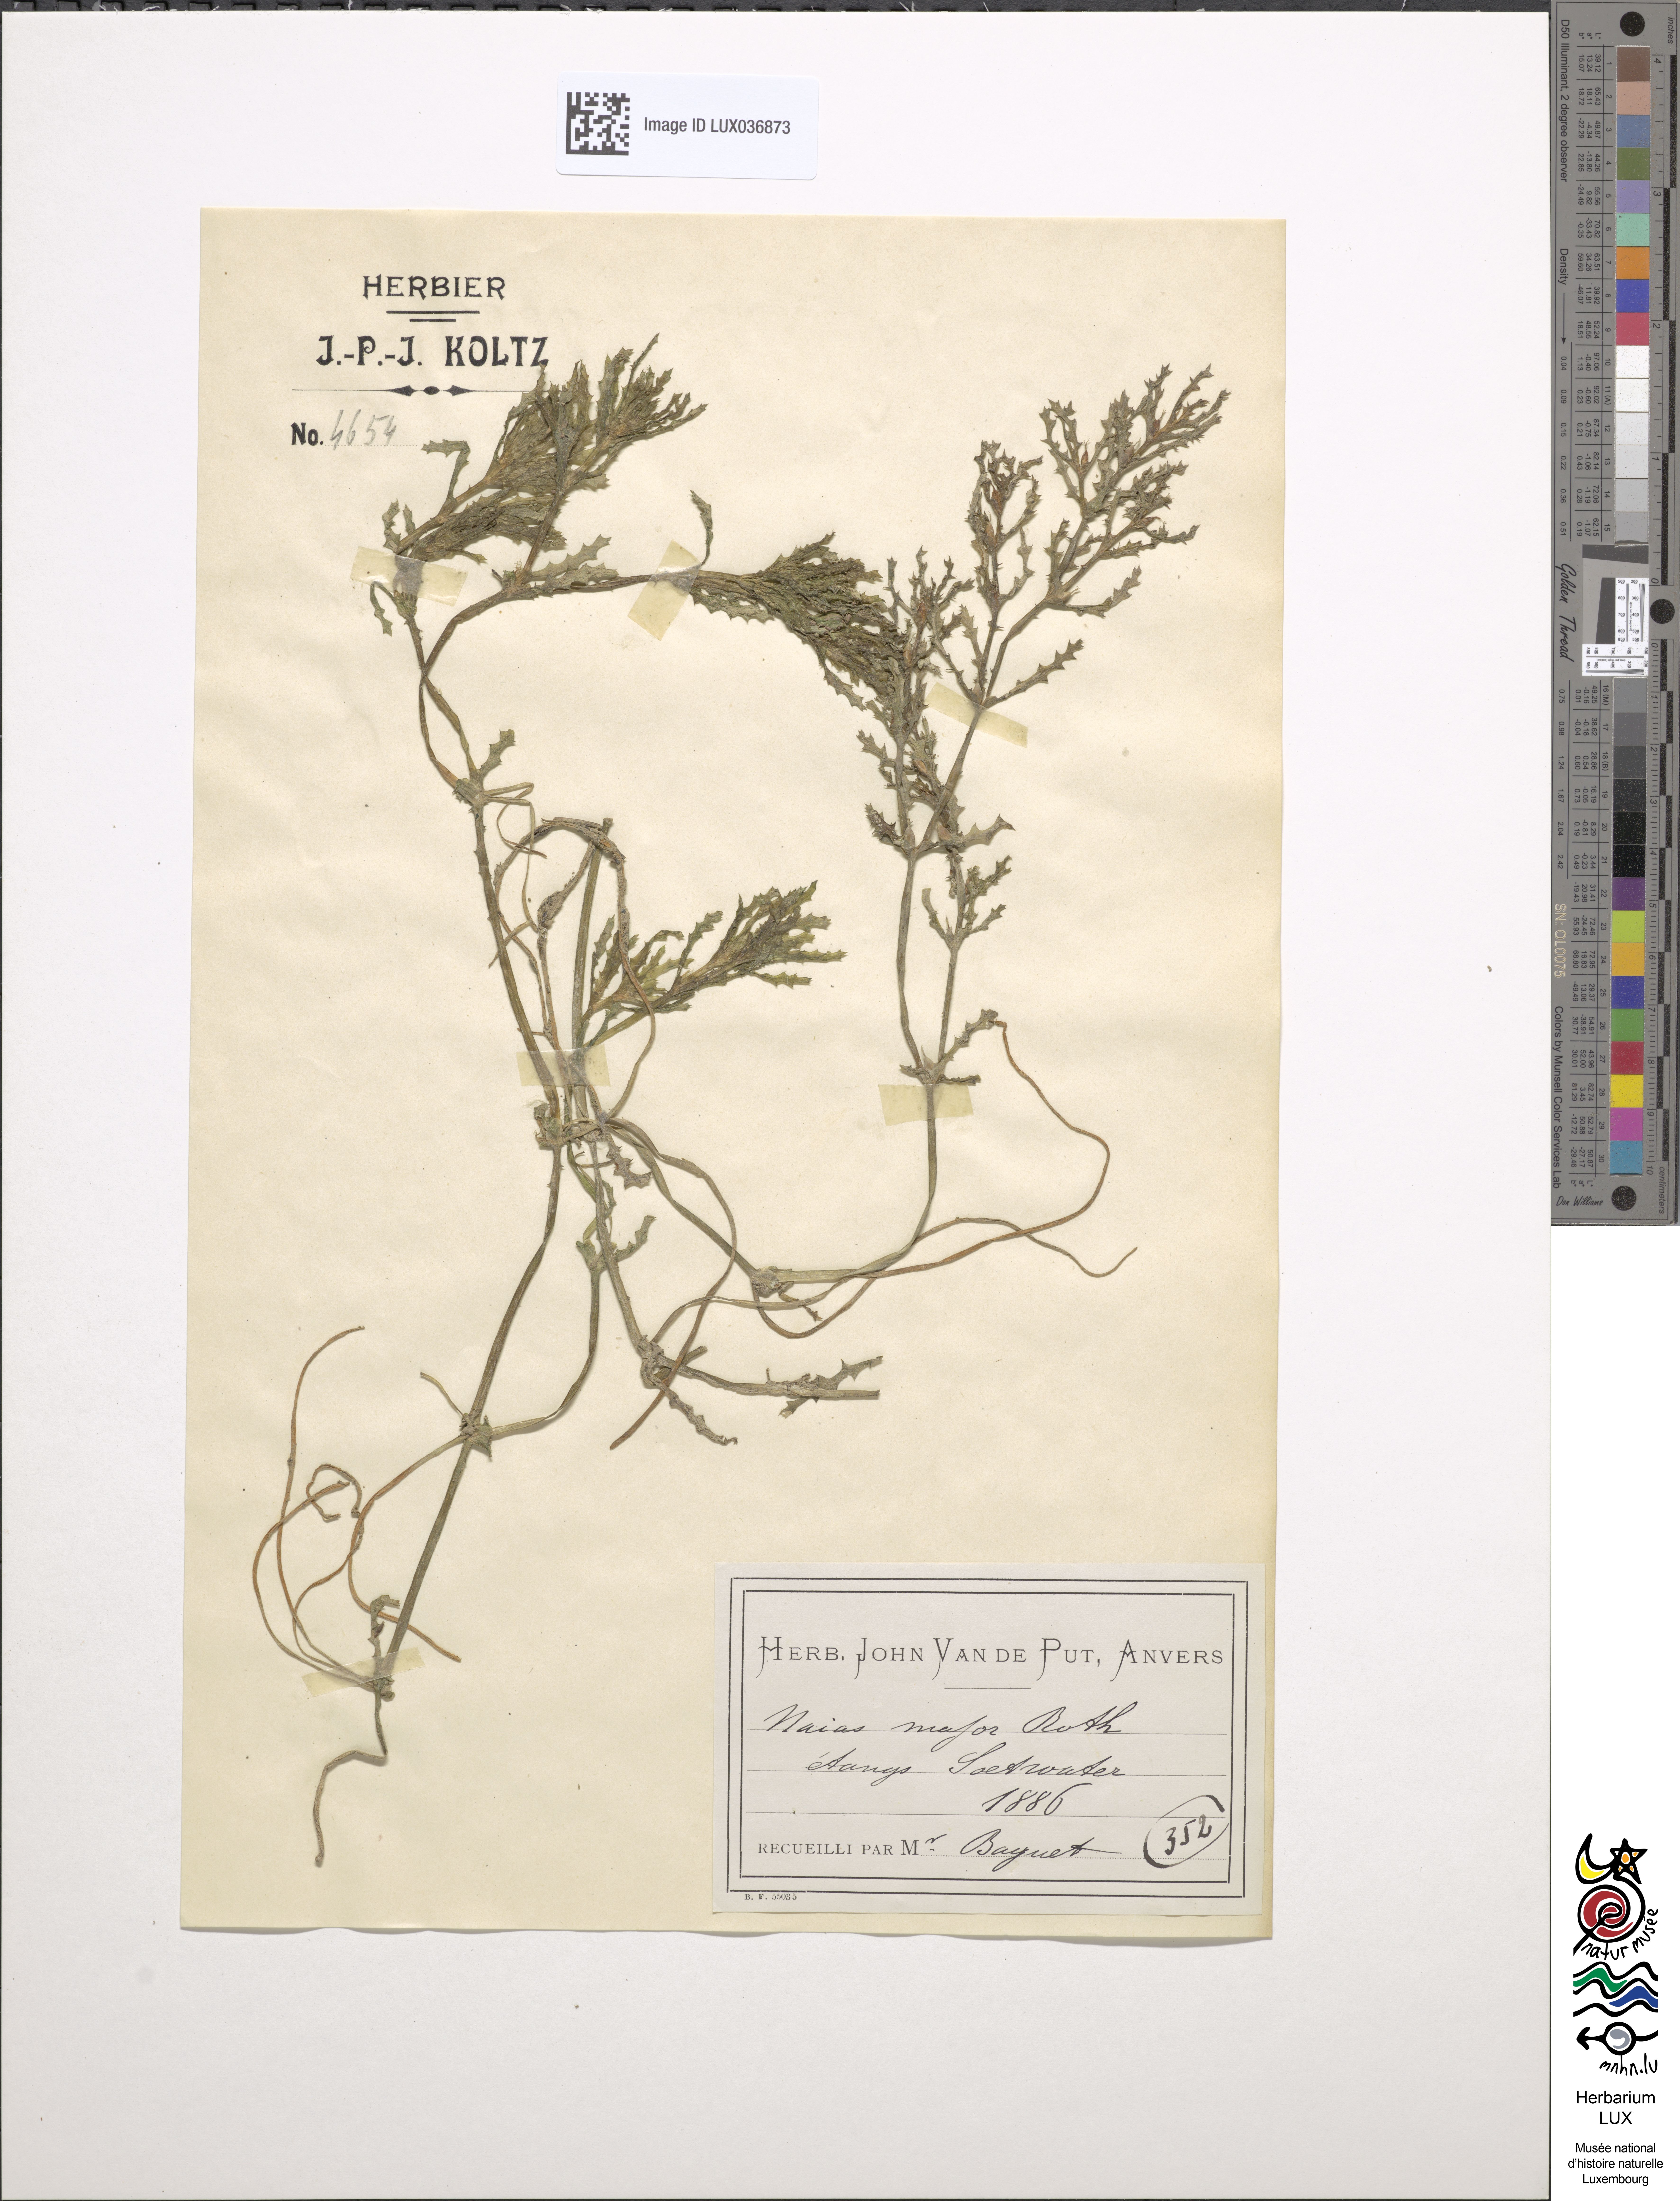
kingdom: Plantae
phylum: Tracheophyta
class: Liliopsida
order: Alismatales
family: Hydrocharitaceae
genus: Najas
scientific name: Najas marina
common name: Holly-leaved naiad
